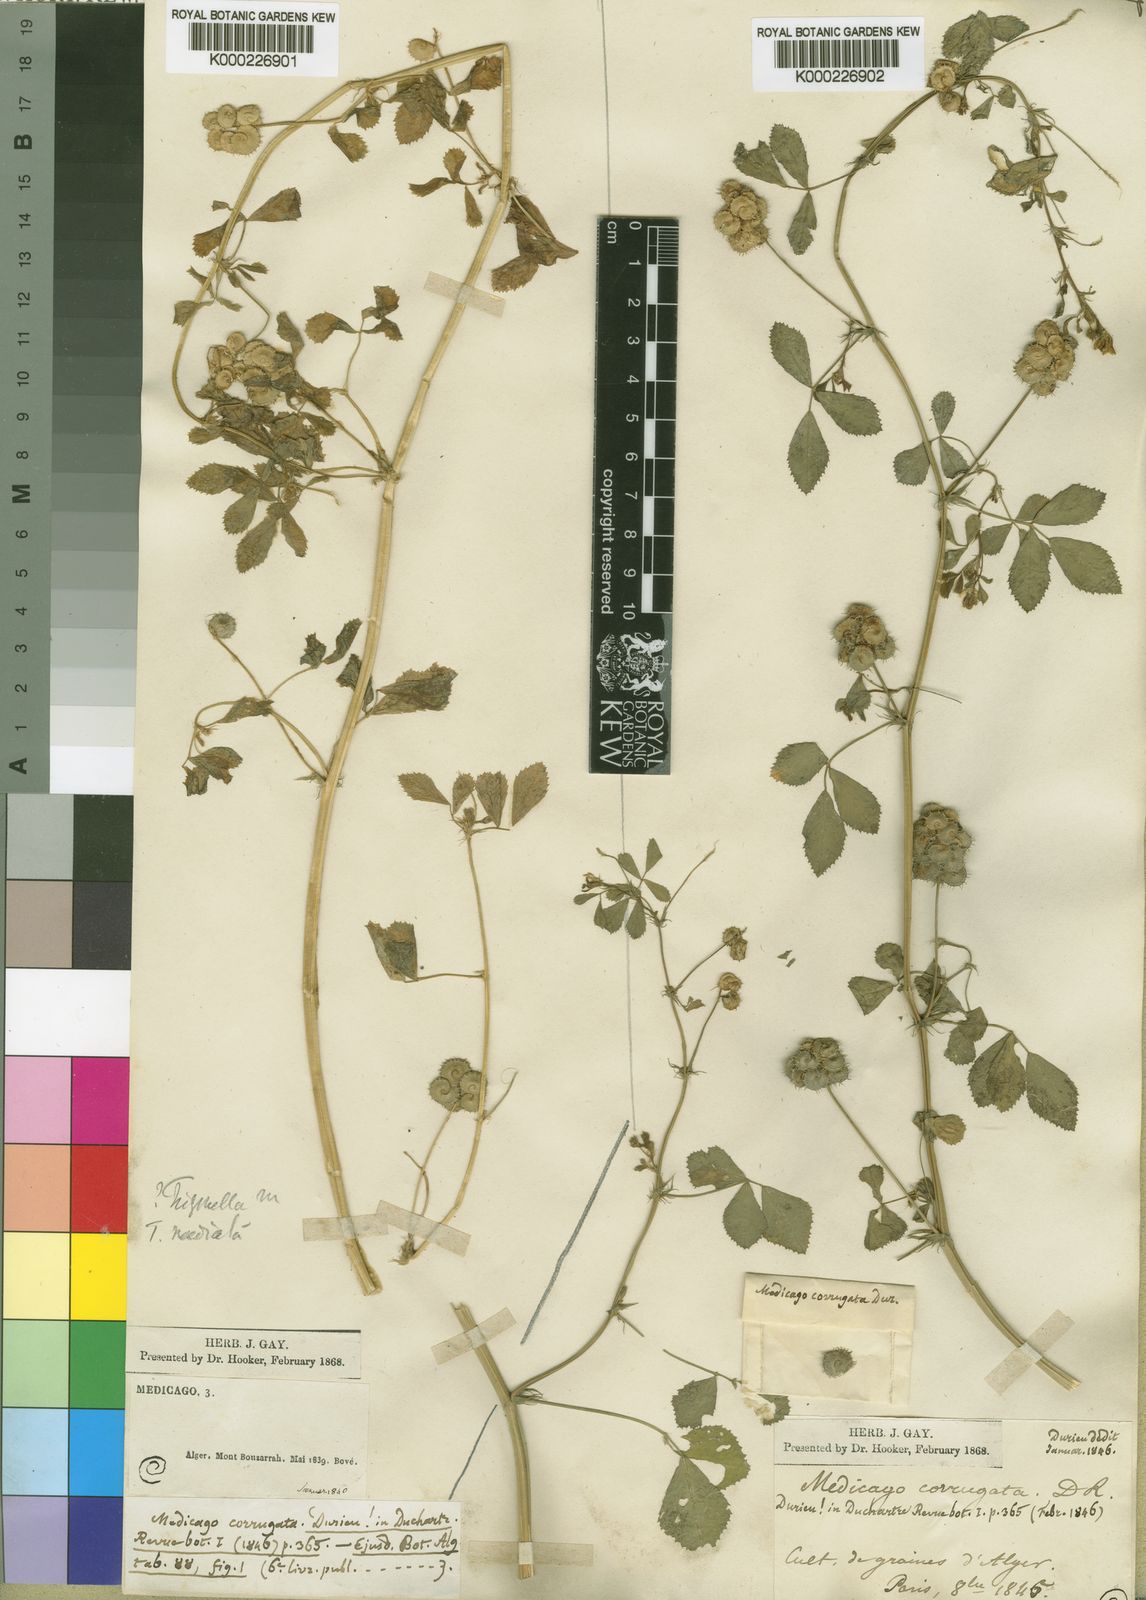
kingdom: Plantae
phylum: Tracheophyta
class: Magnoliopsida
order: Fabales
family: Fabaceae
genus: Medicago
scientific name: Medicago tornata
